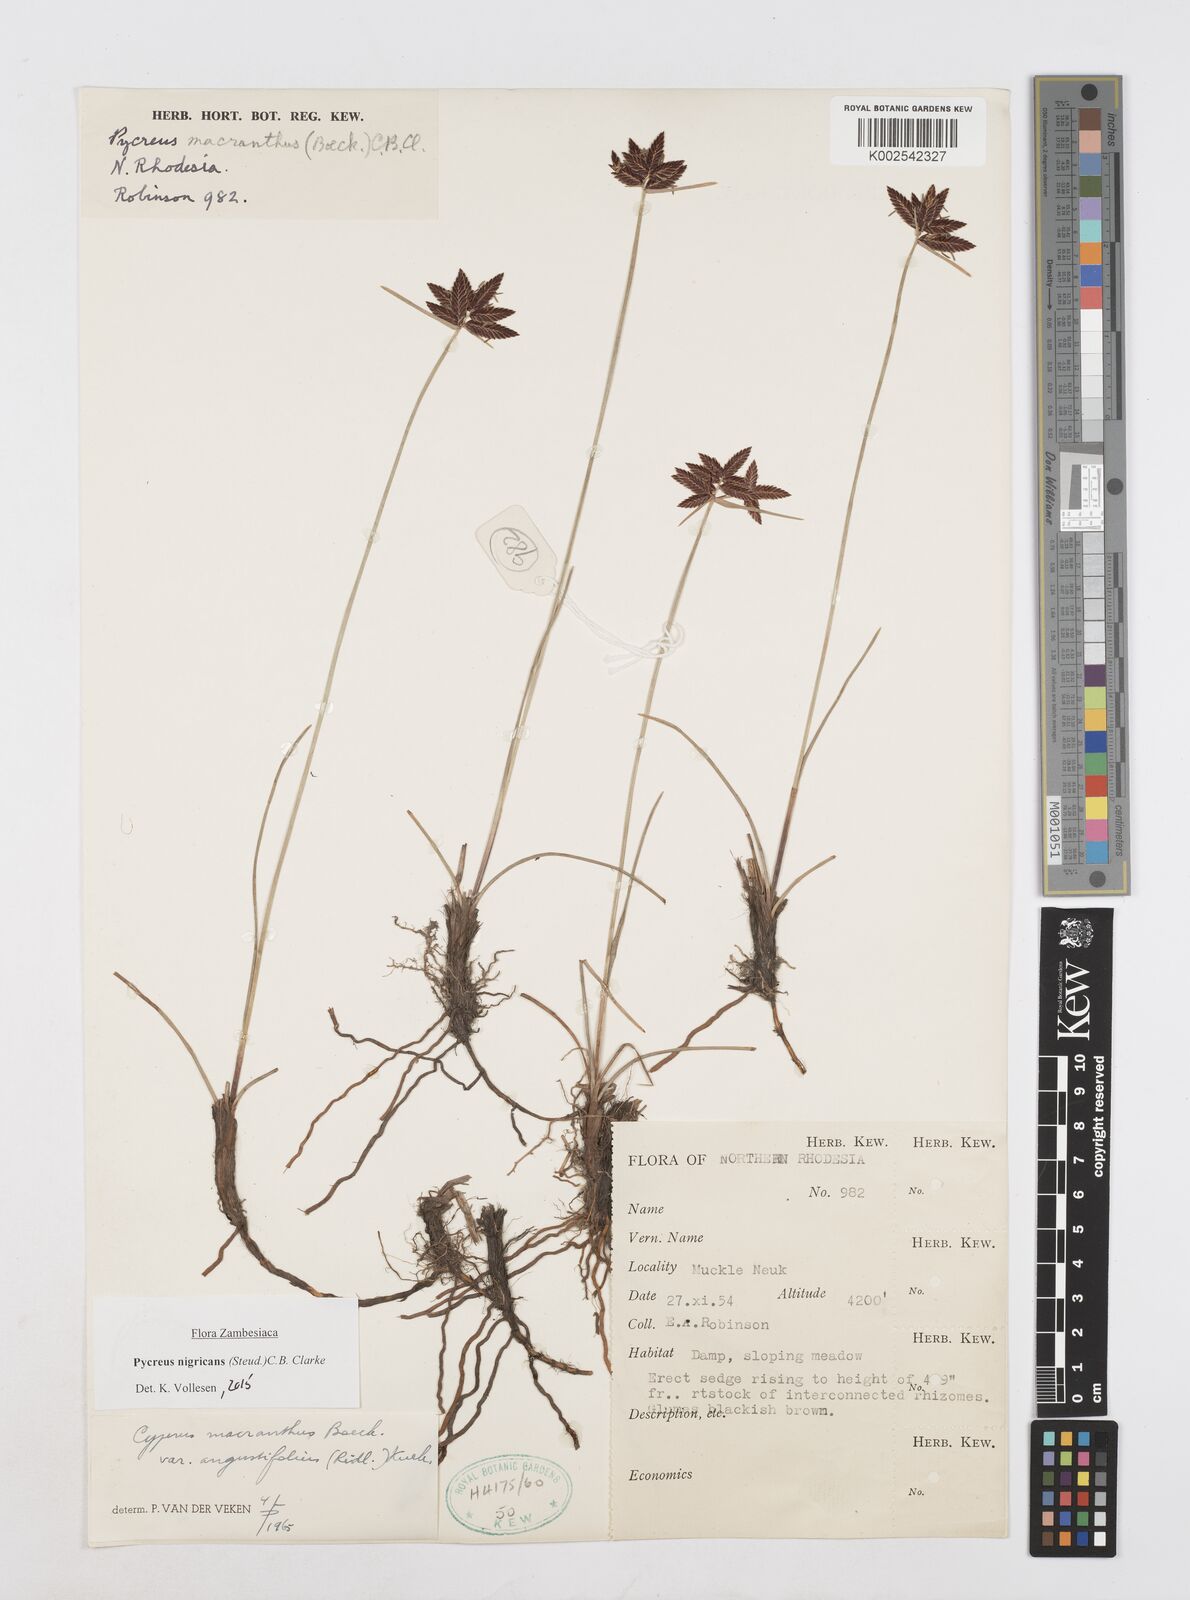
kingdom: Plantae
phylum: Tracheophyta
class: Liliopsida
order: Poales
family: Cyperaceae
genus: Cyperus
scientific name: Cyperus nigricans
